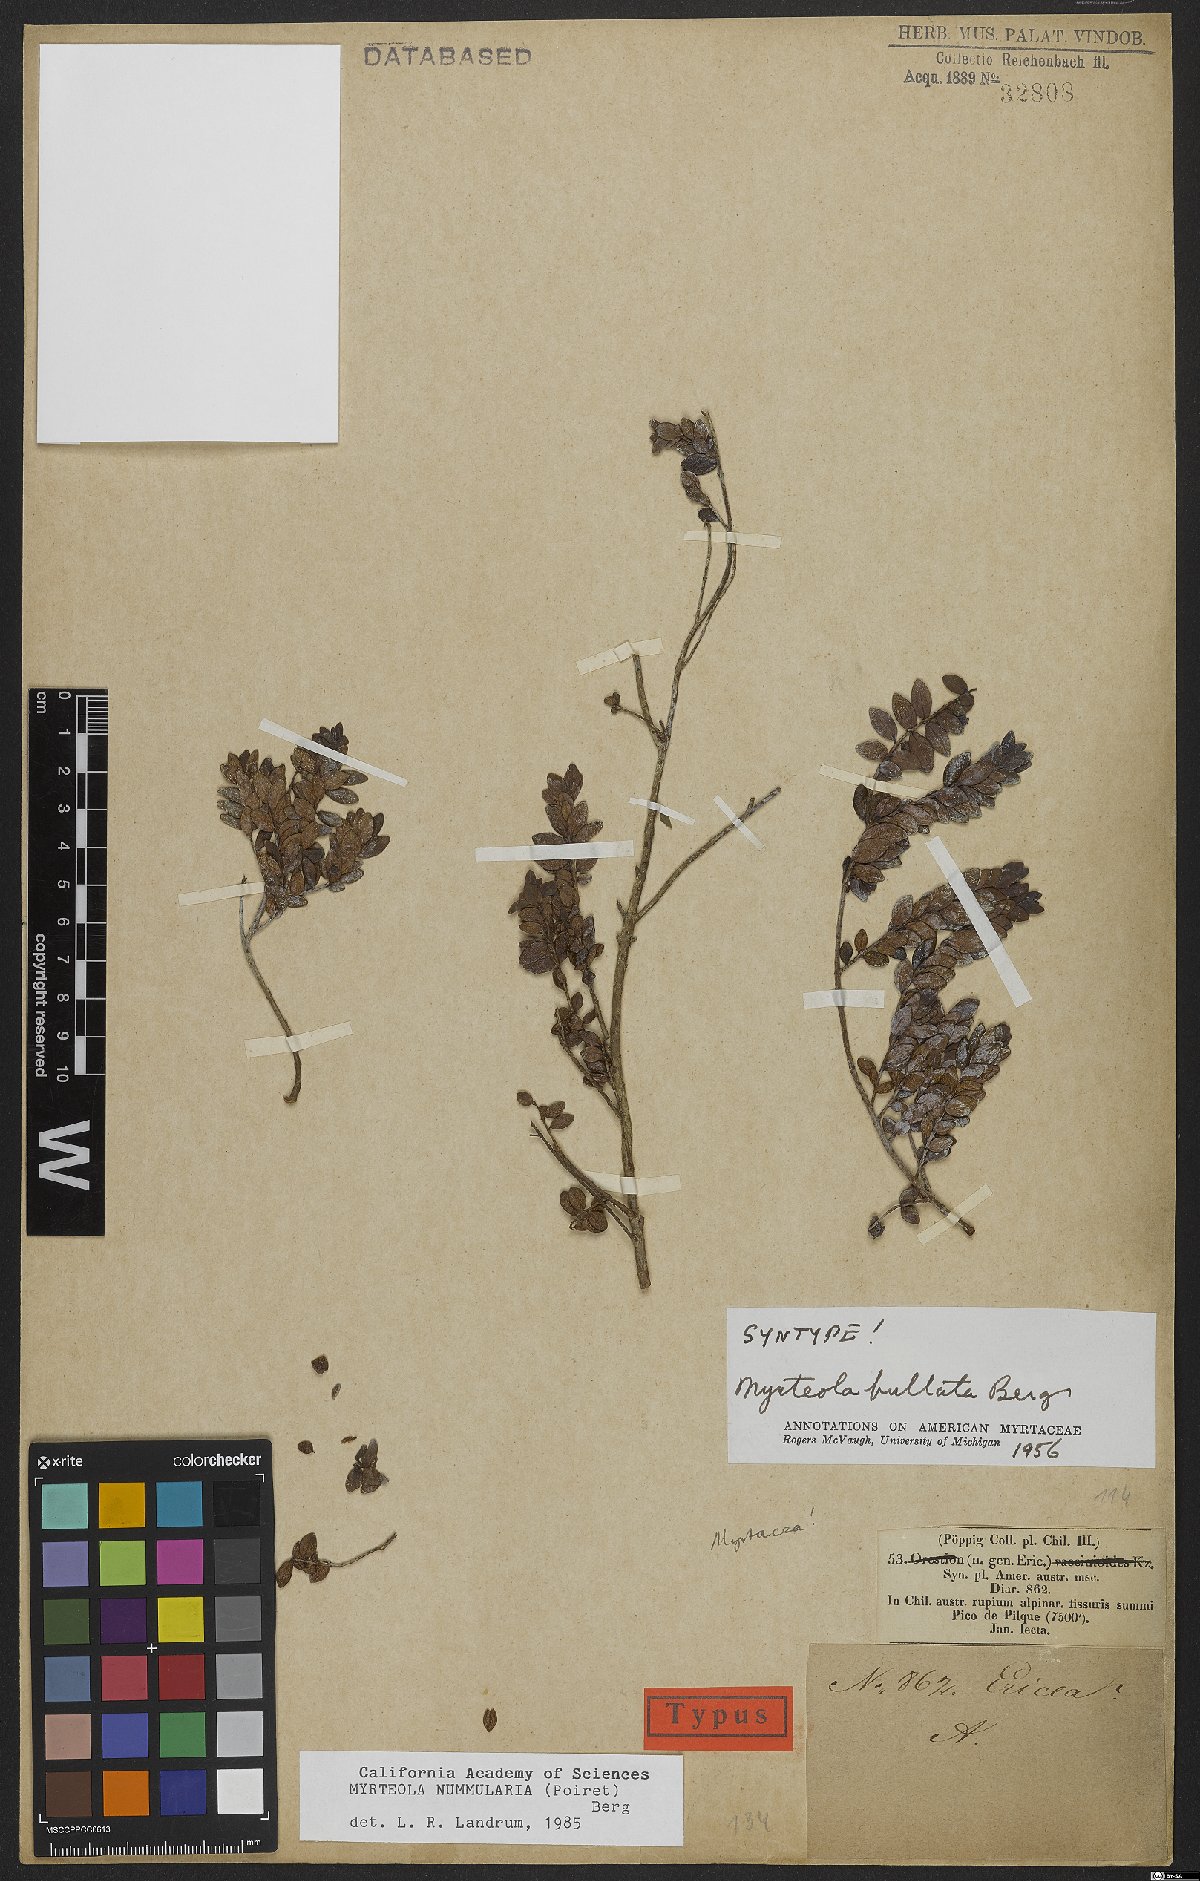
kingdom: Plantae
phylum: Tracheophyta
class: Magnoliopsida
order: Myrtales
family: Myrtaceae
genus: Myrteola
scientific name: Myrteola nummularia
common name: Cranberry-myrtle
